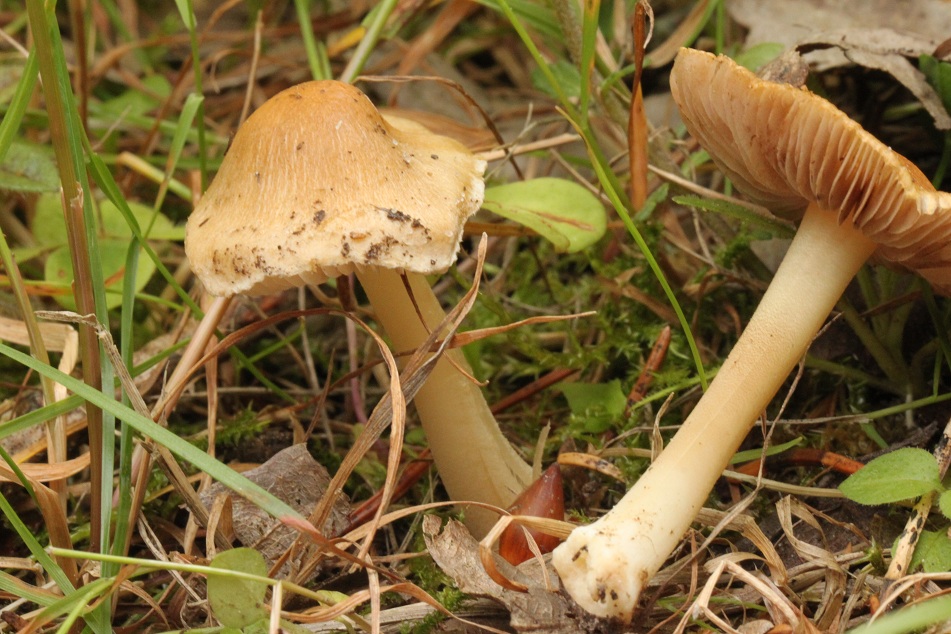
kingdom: Fungi
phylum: Basidiomycota
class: Agaricomycetes
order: Agaricales
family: Inocybaceae
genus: Inocybe
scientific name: Inocybe napipes
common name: roeknoldet trævlhat
